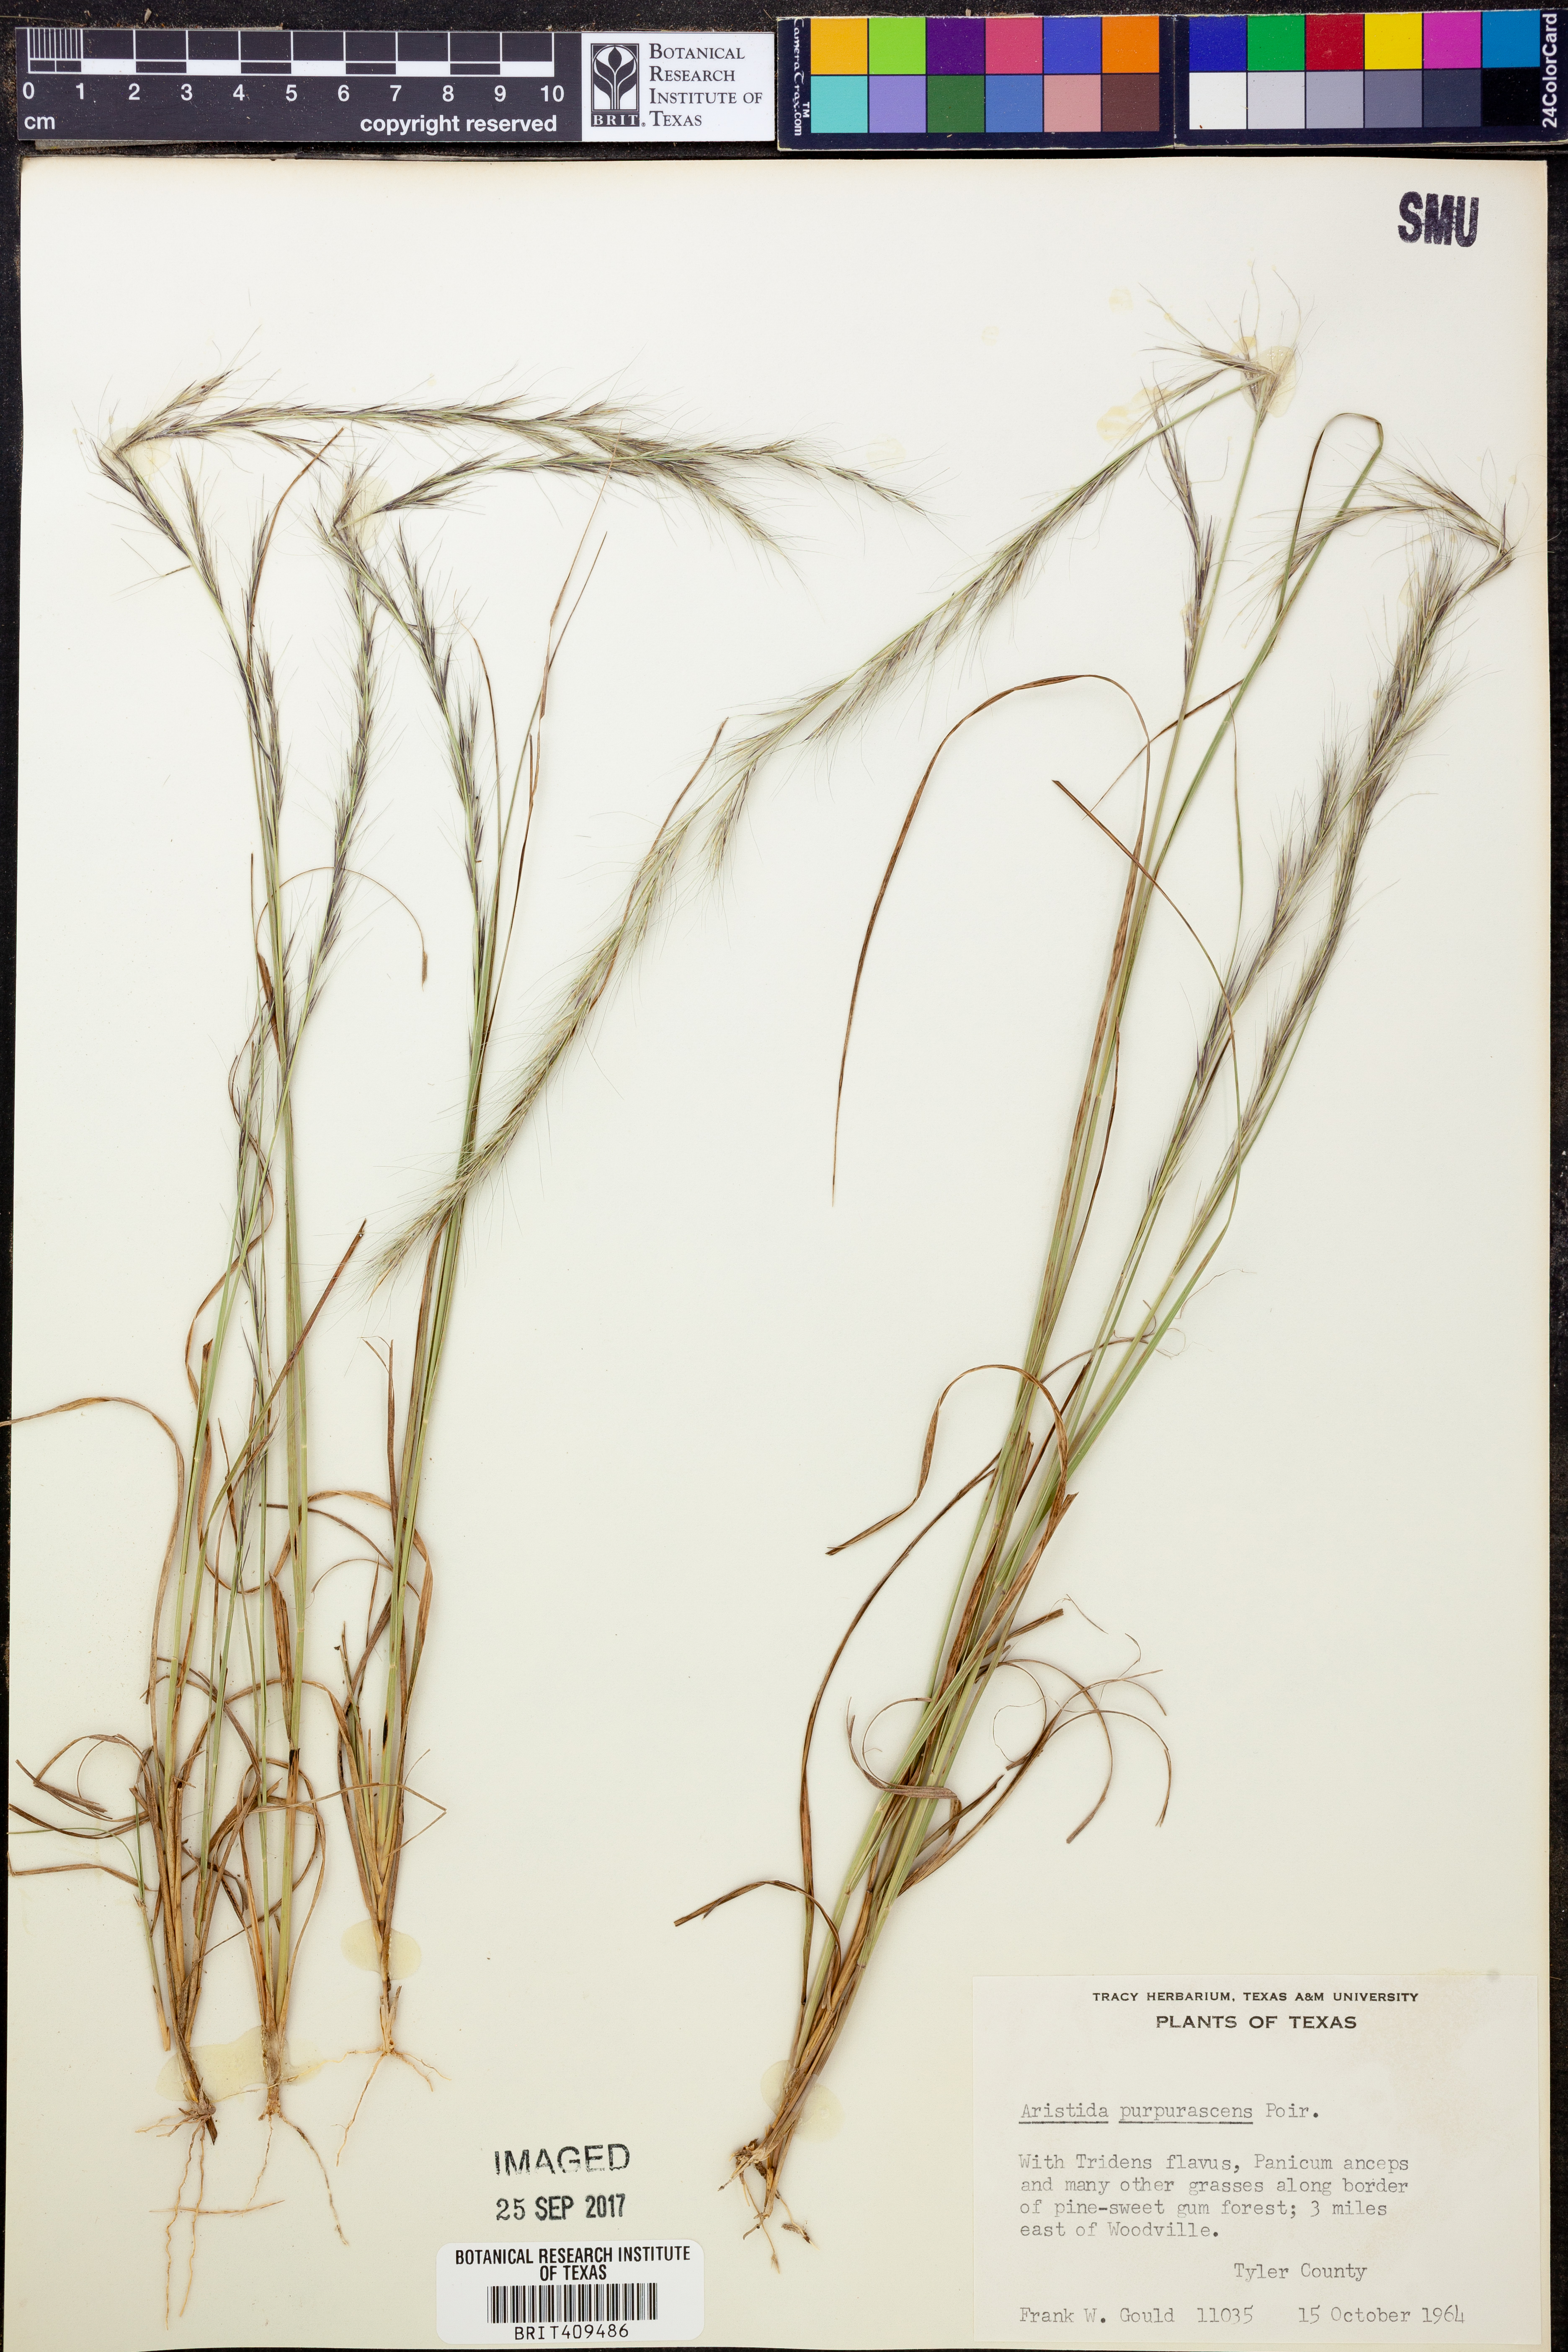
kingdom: Plantae
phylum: Tracheophyta
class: Liliopsida
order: Poales
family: Poaceae
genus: Aristida
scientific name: Aristida purpurascens
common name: Arrow-feather
